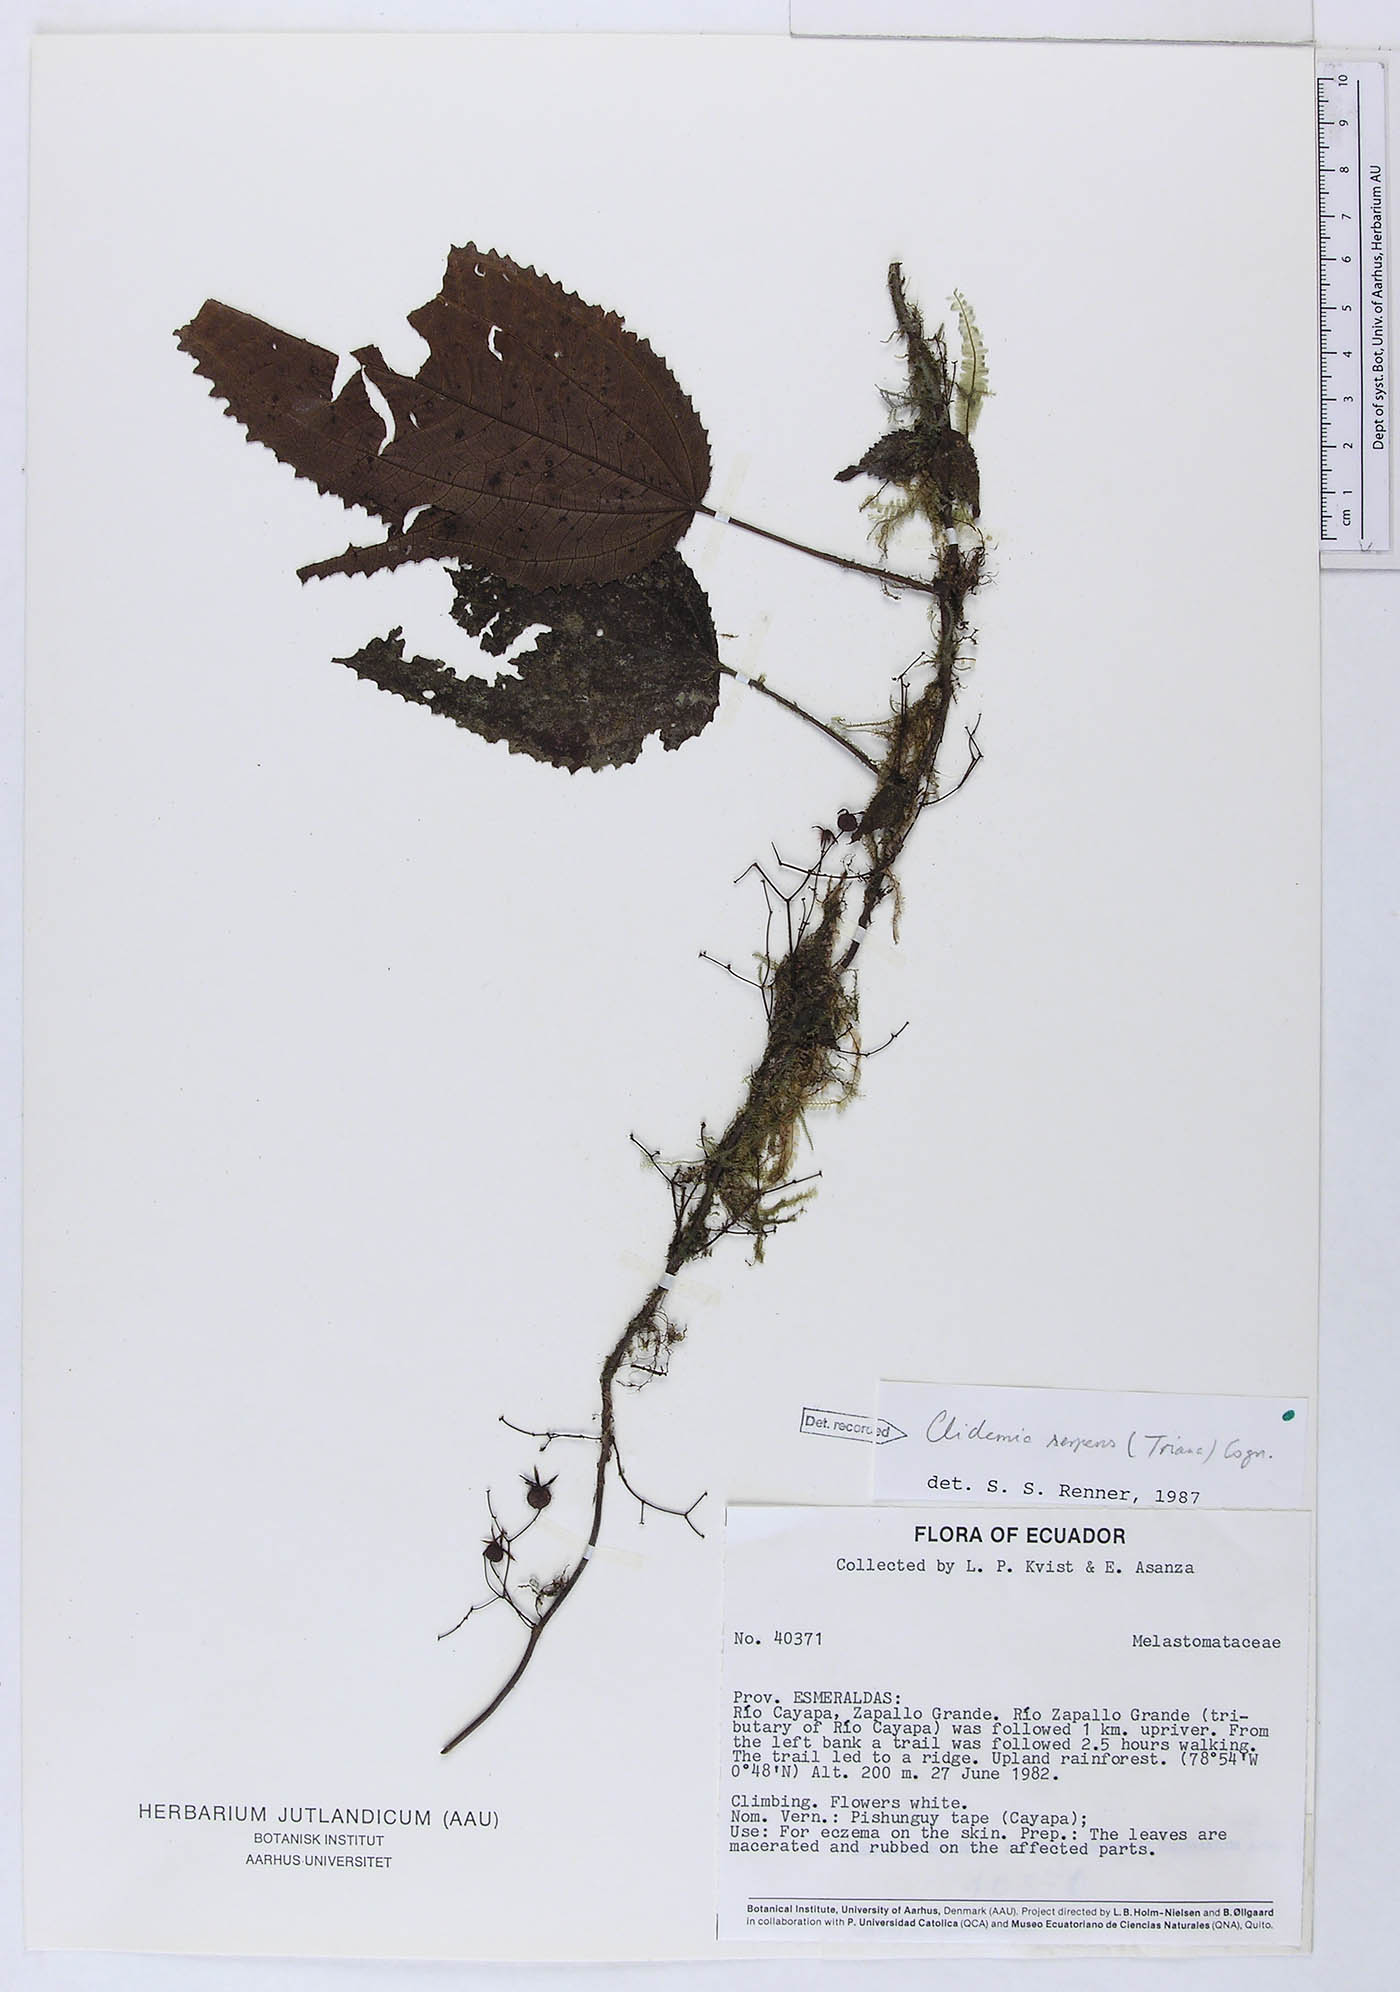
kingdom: Plantae
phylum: Tracheophyta
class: Magnoliopsida
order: Myrtales
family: Melastomataceae
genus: Miconia
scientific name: Miconia serpens
